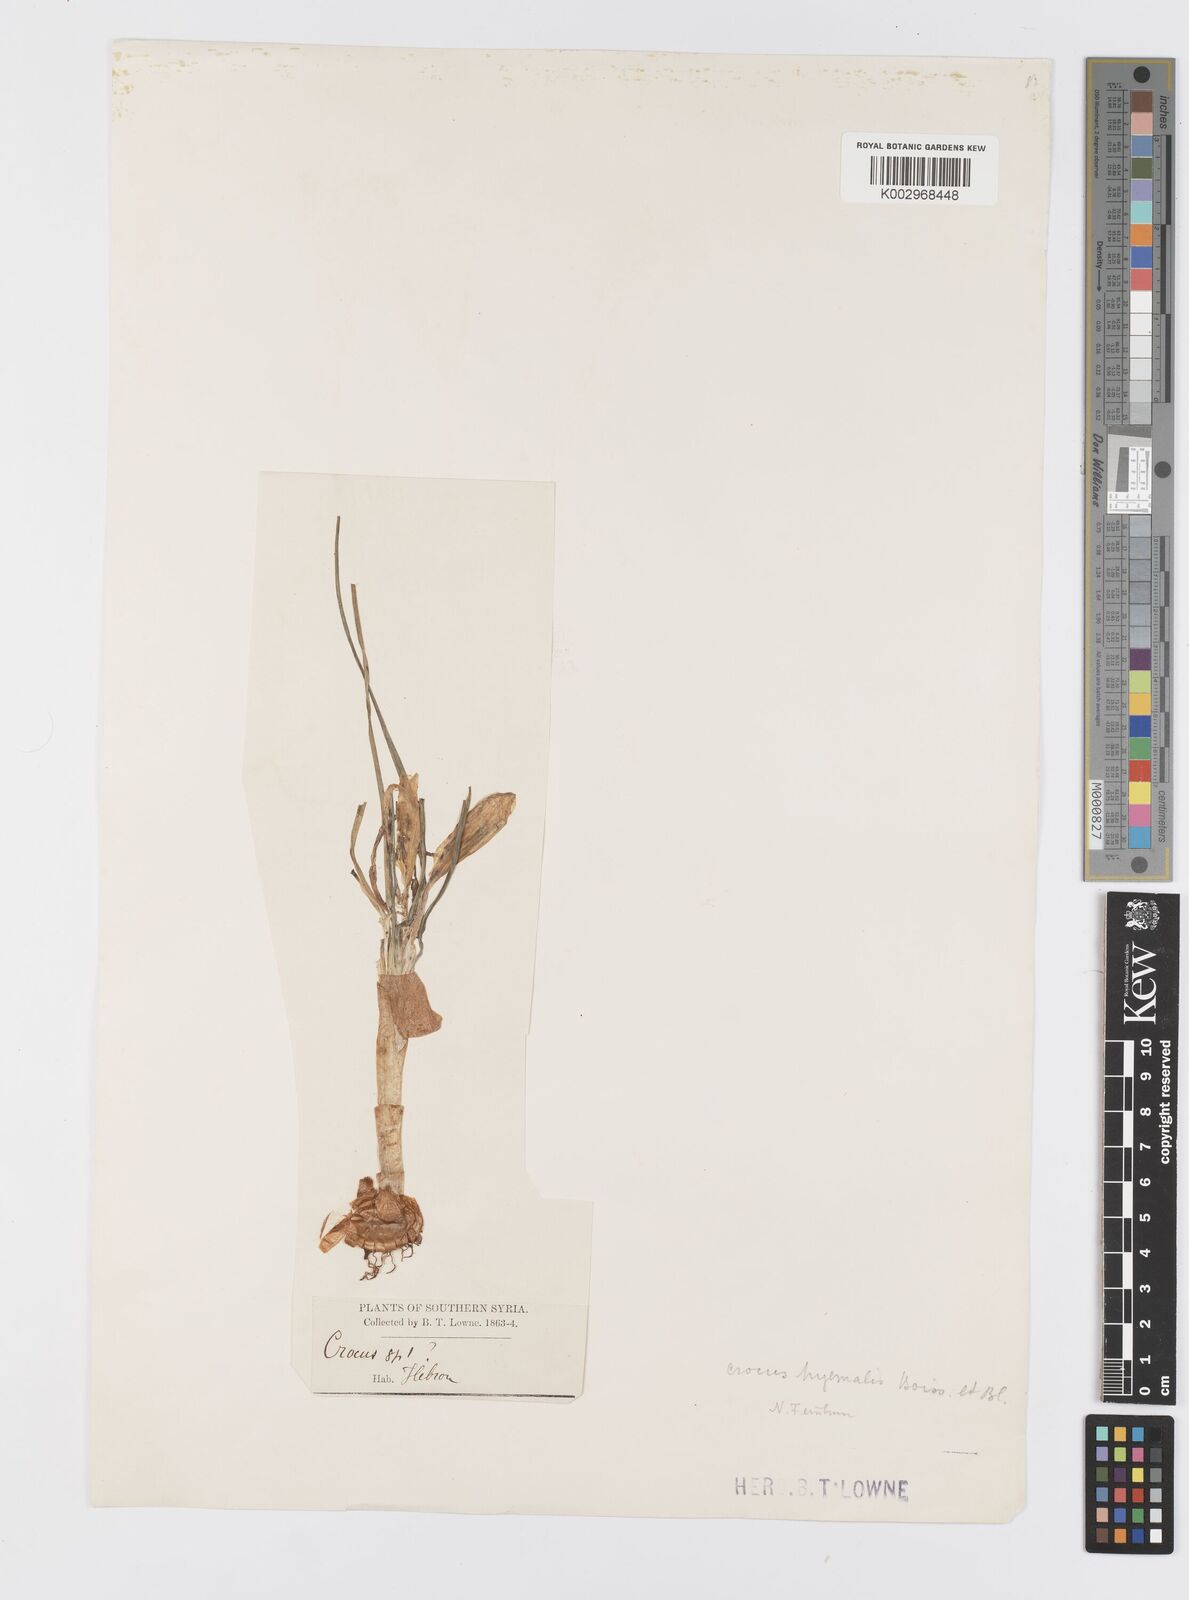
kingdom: Plantae
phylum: Tracheophyta
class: Liliopsida
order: Asparagales
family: Iridaceae
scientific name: Iridaceae
